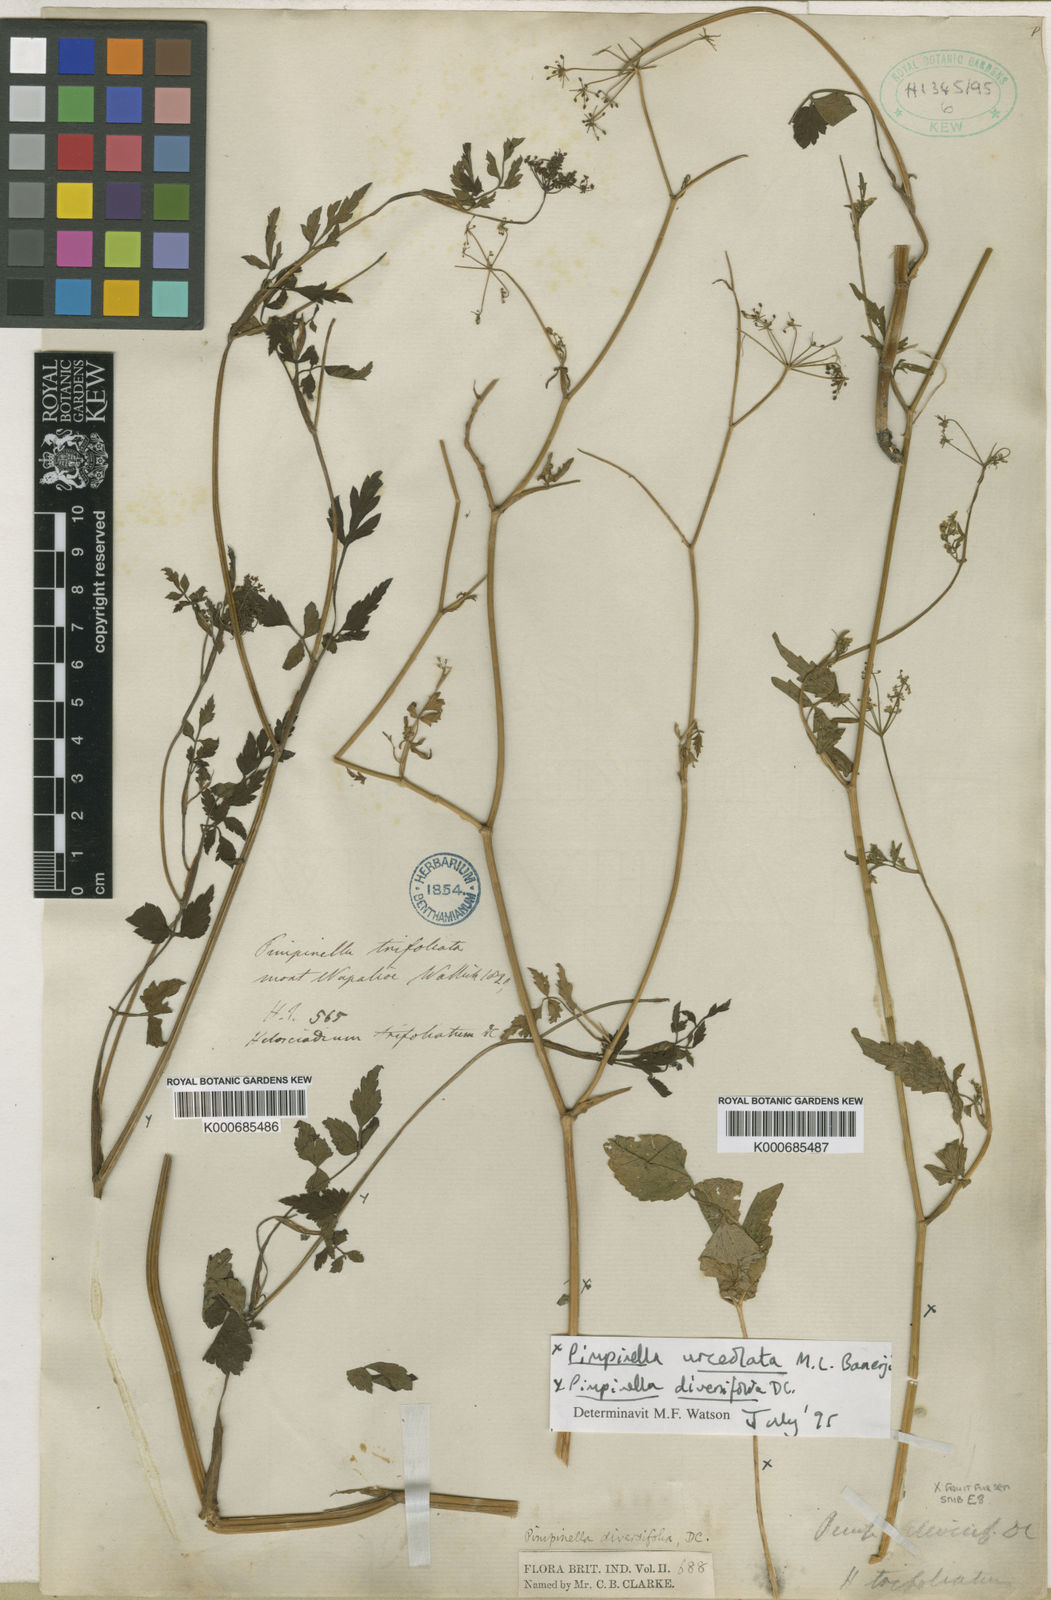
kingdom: Plantae
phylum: Tracheophyta
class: Magnoliopsida
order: Apiales
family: Apiaceae
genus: Pimpinella
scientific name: Pimpinella diversifolia
